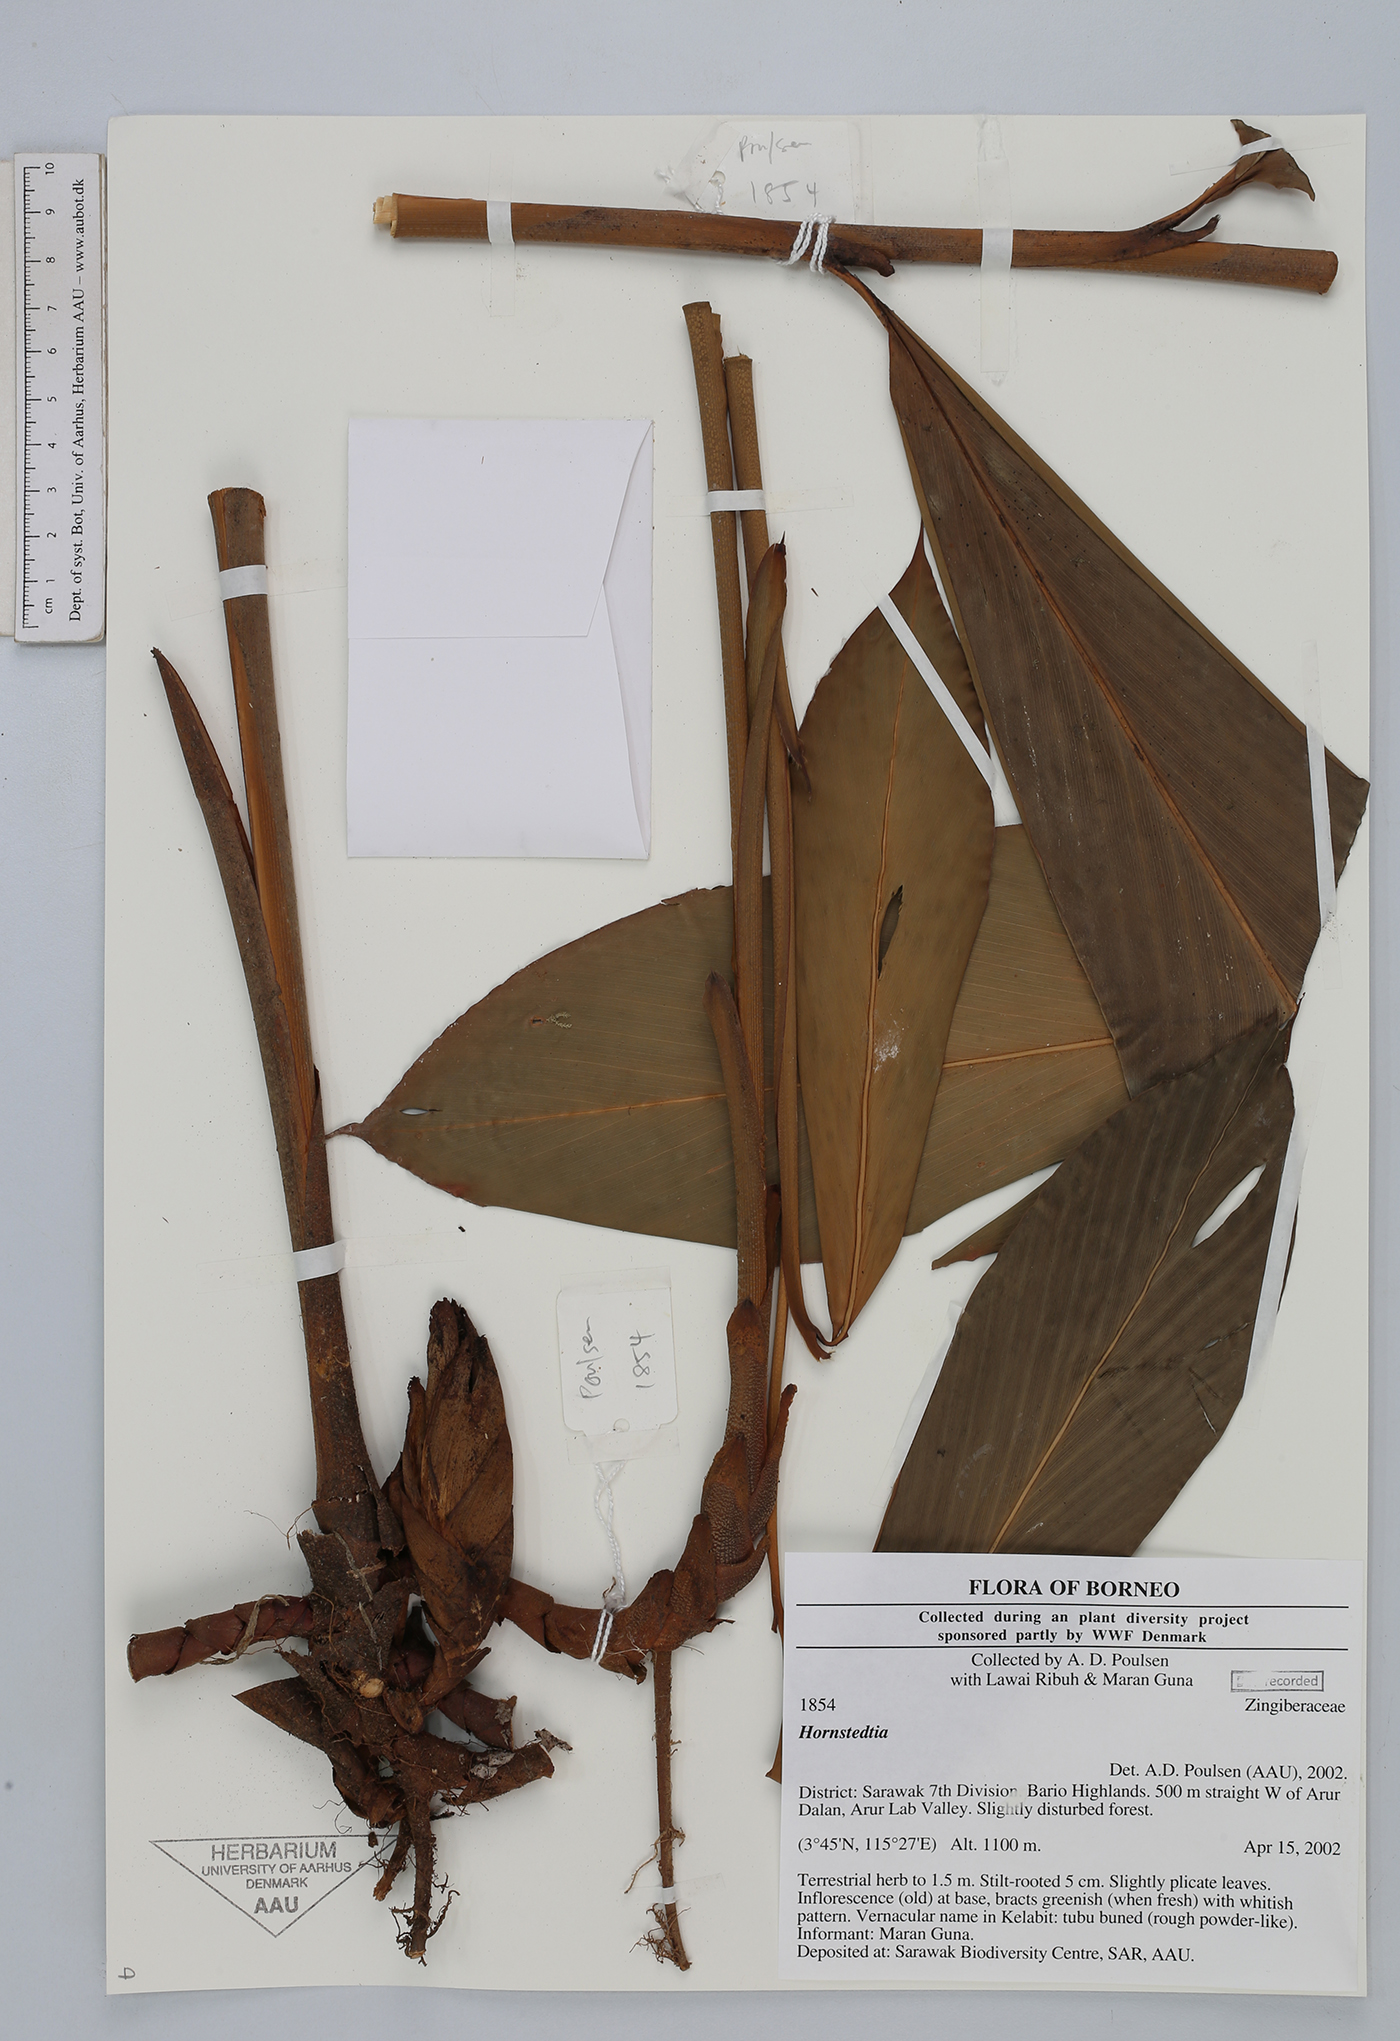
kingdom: Plantae
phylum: Tracheophyta
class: Liliopsida
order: Zingiberales
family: Zingiberaceae
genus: Hornstedtia
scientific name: Hornstedtia
